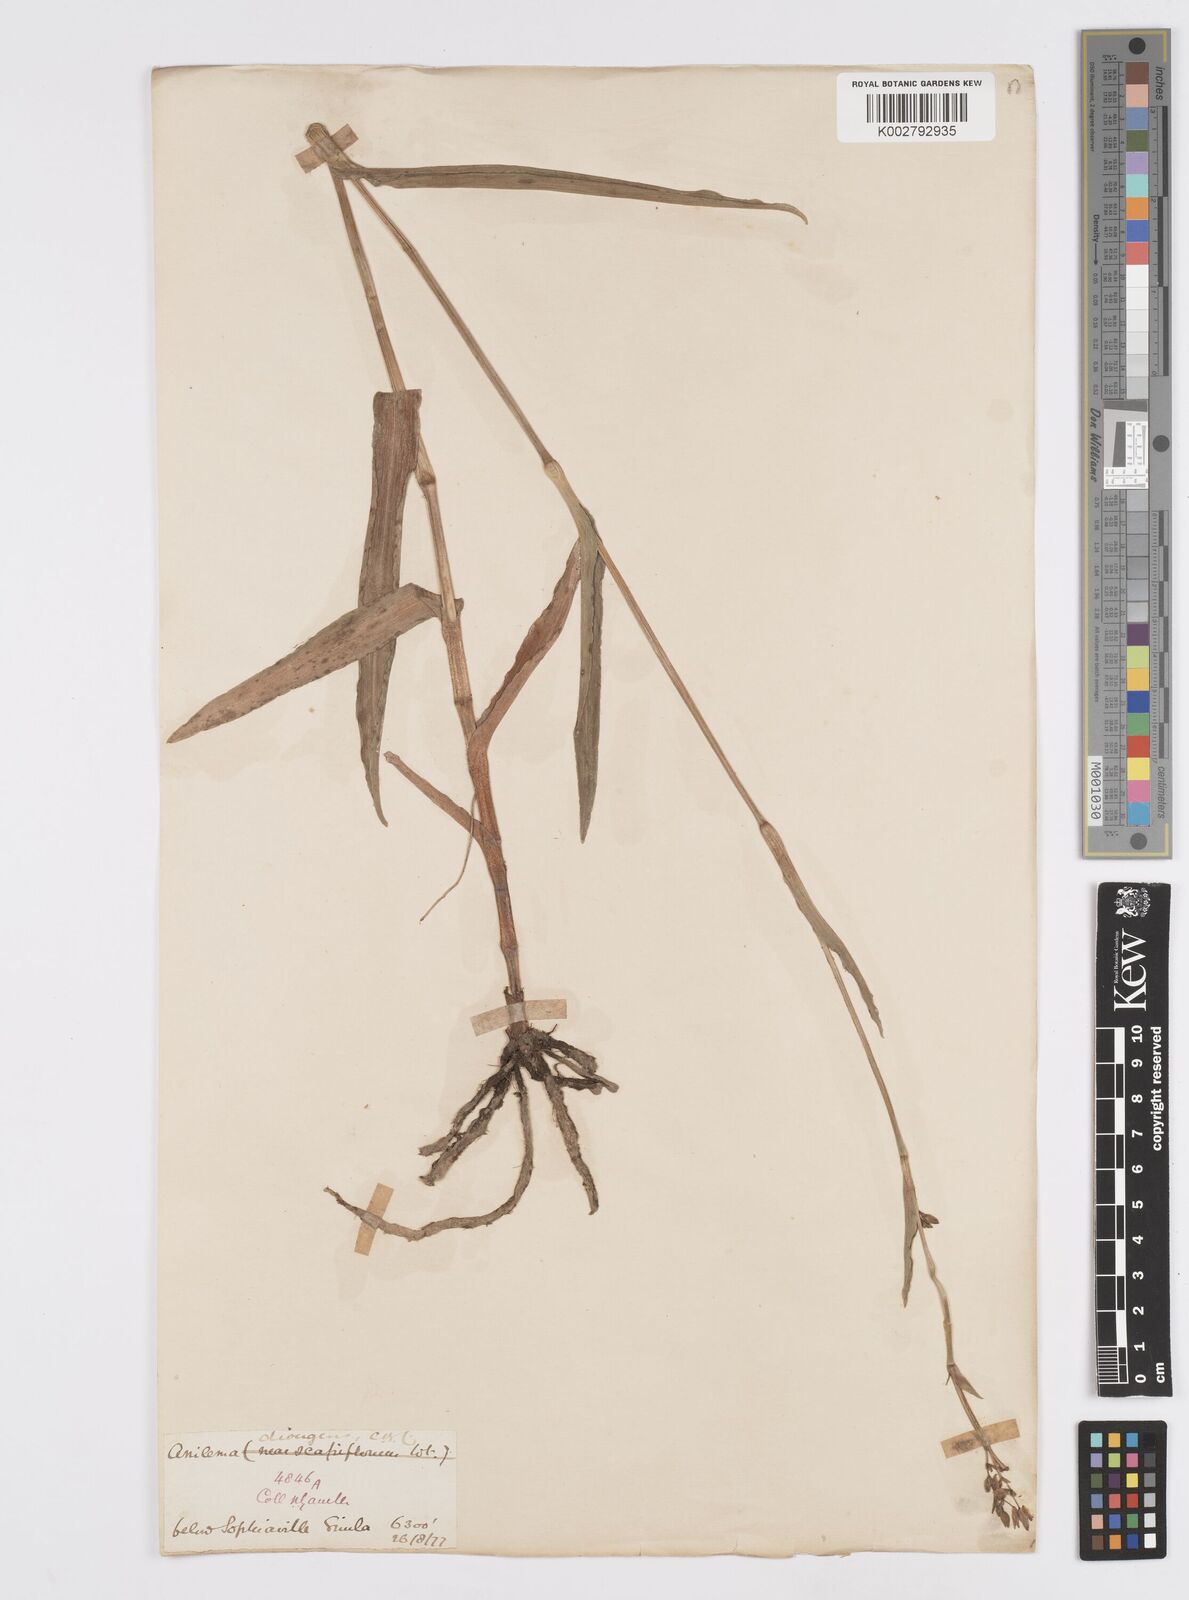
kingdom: Plantae
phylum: Tracheophyta
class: Liliopsida
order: Commelinales
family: Commelinaceae
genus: Murdannia
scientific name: Murdannia divergens
